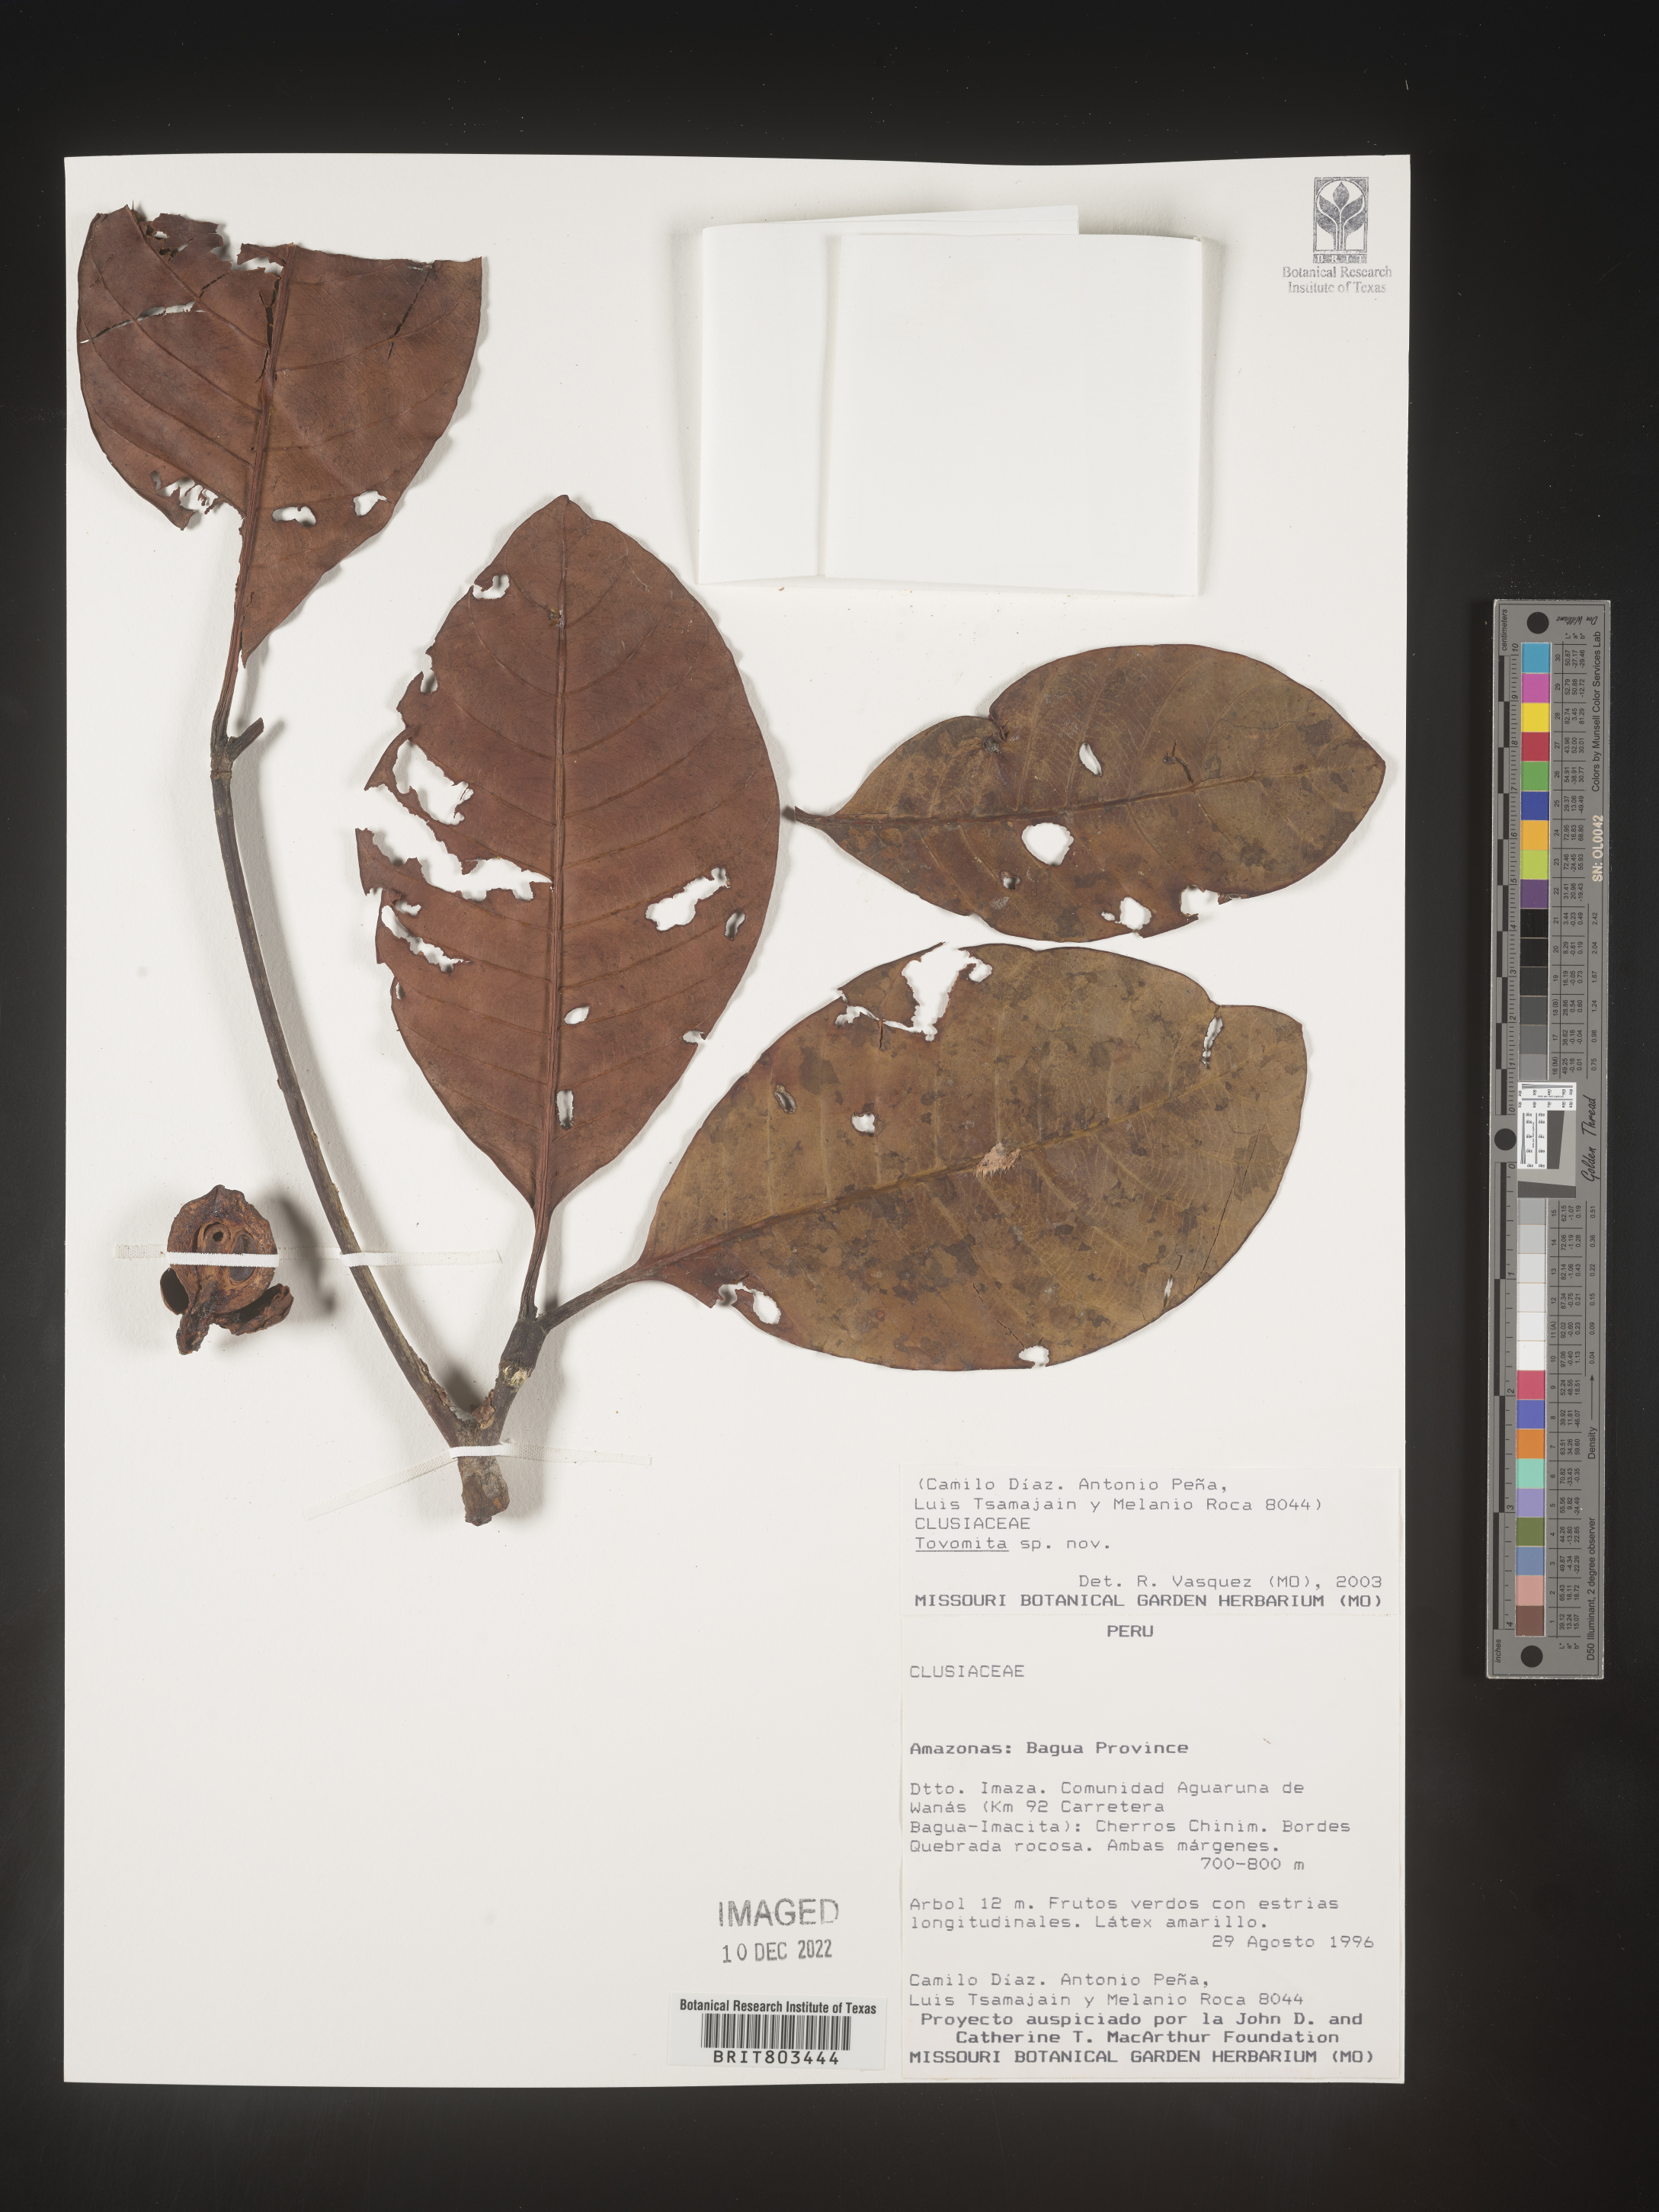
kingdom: Plantae
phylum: Tracheophyta
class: Magnoliopsida
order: Malpighiales
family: Clusiaceae
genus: Tovomita
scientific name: Tovomita
